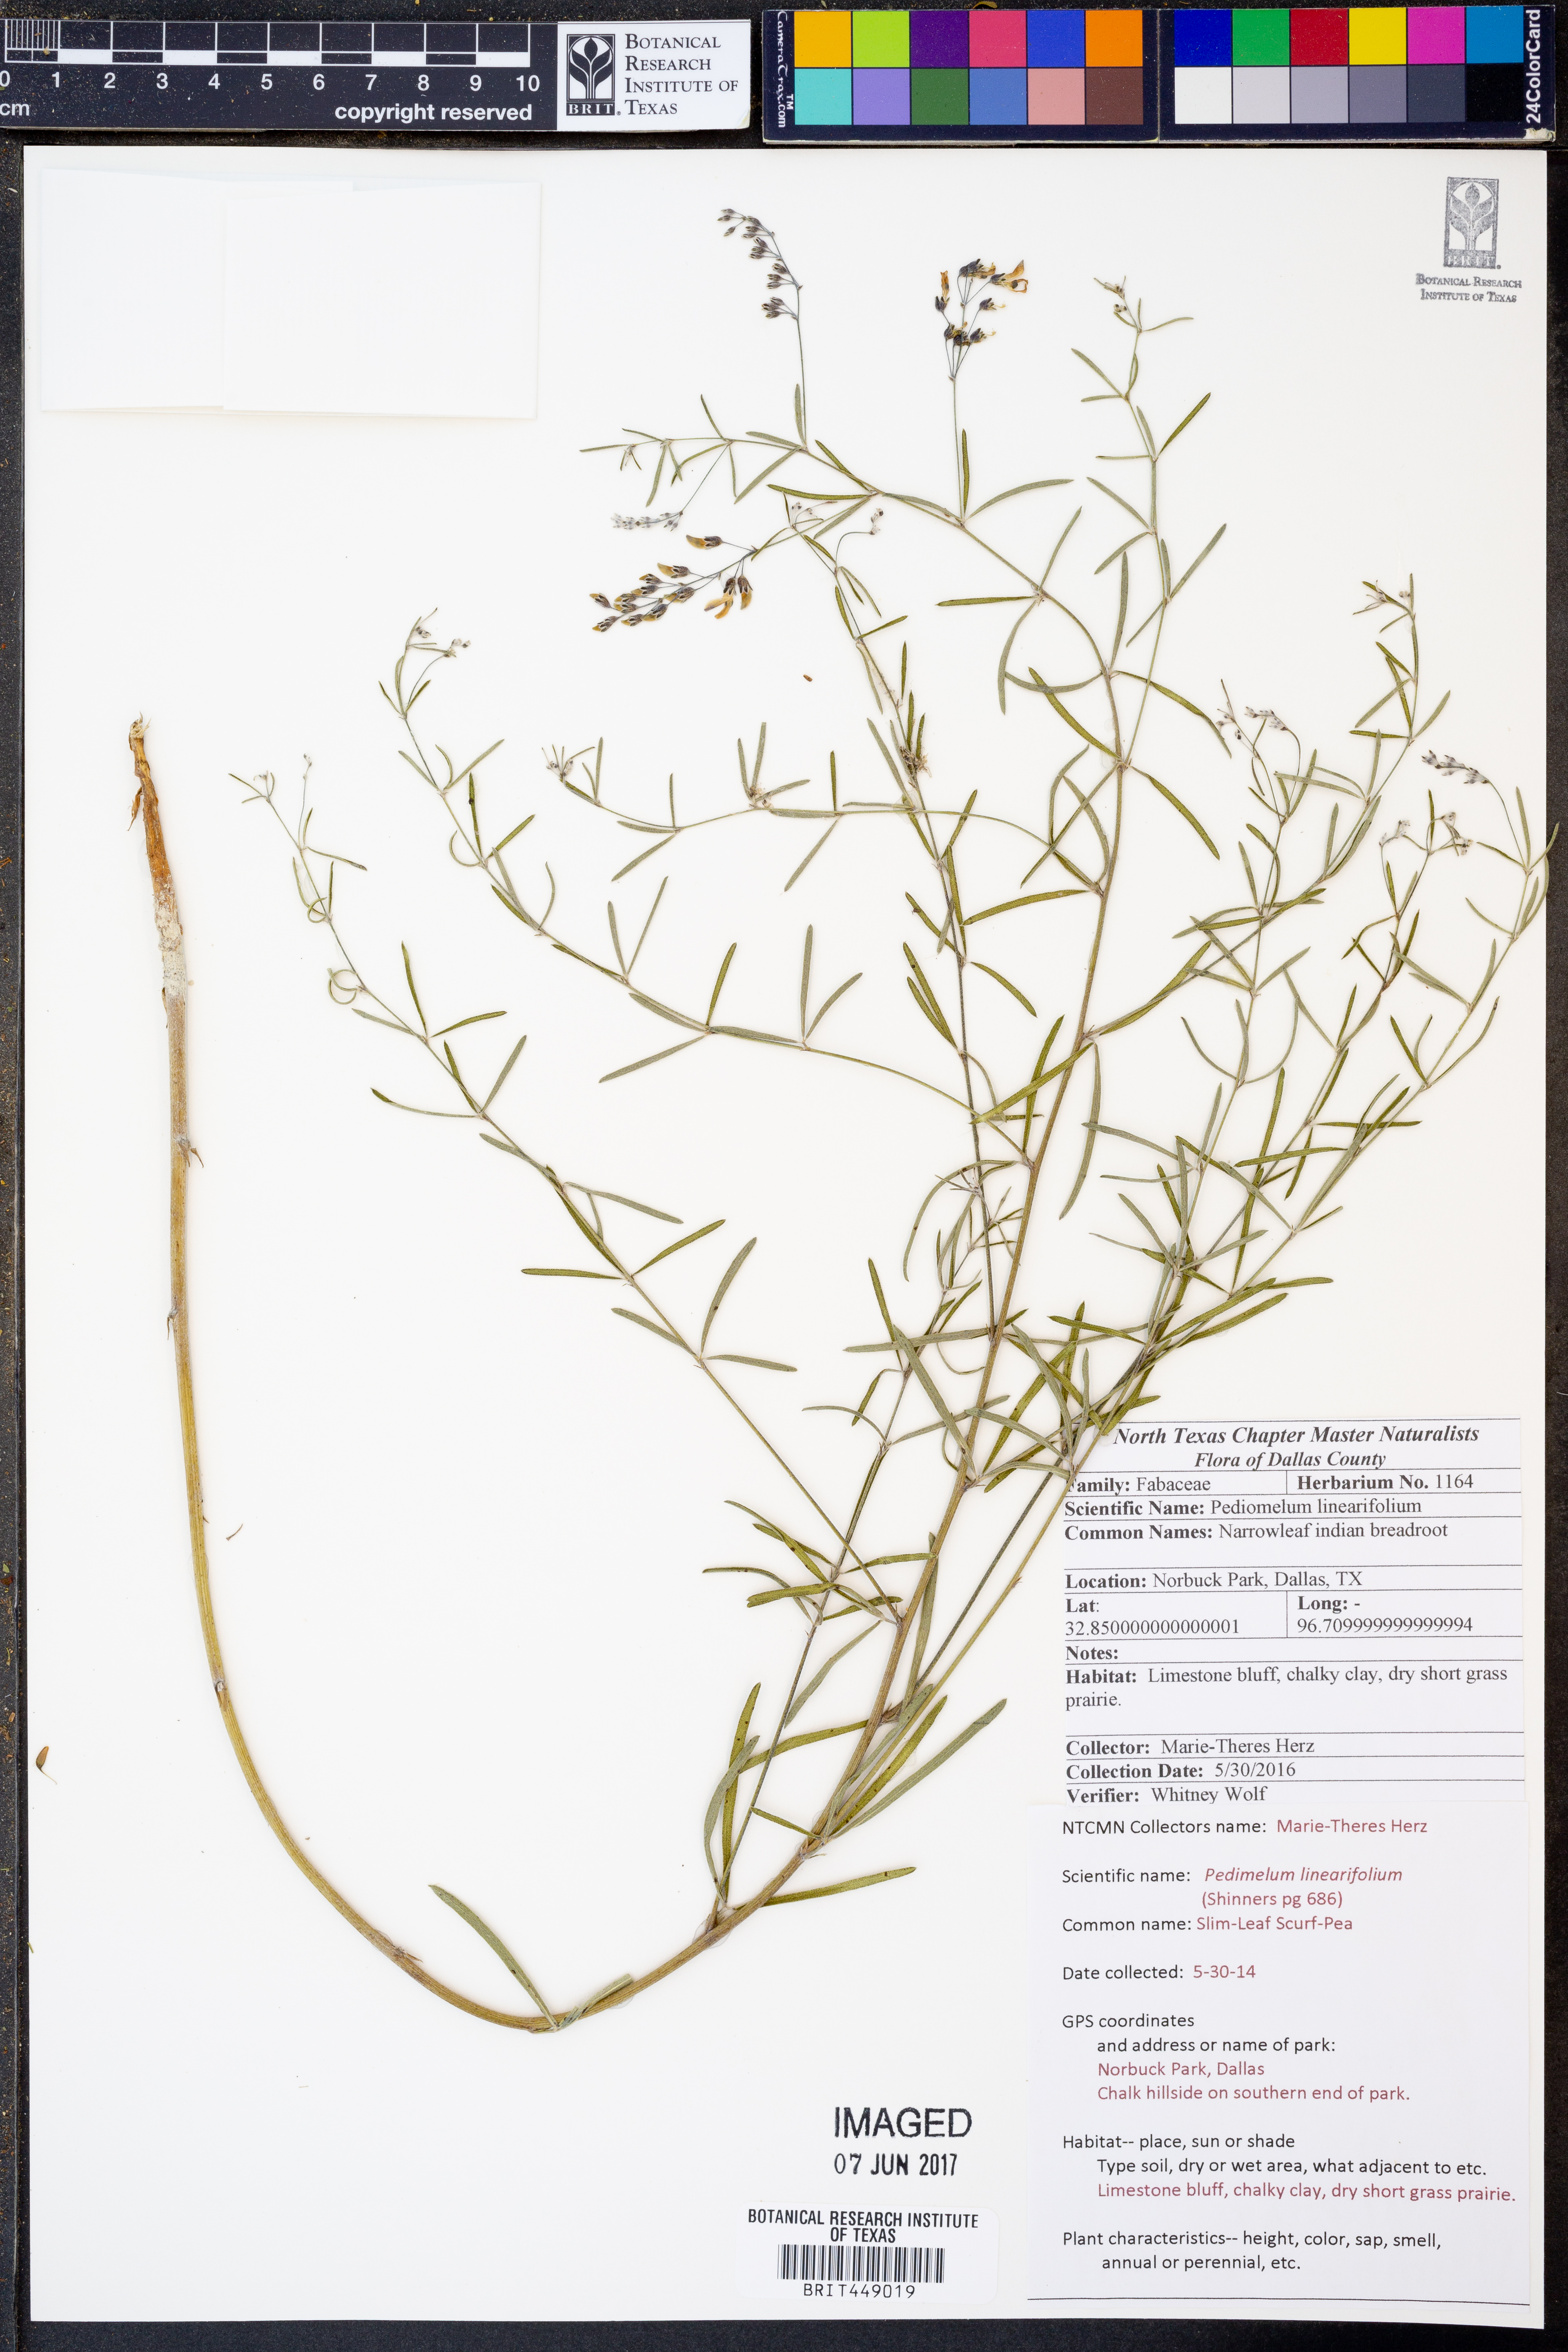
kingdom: Plantae
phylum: Tracheophyta
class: Magnoliopsida
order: Fabales
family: Fabaceae
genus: Pediomelum
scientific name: Pediomelum linearifolium
